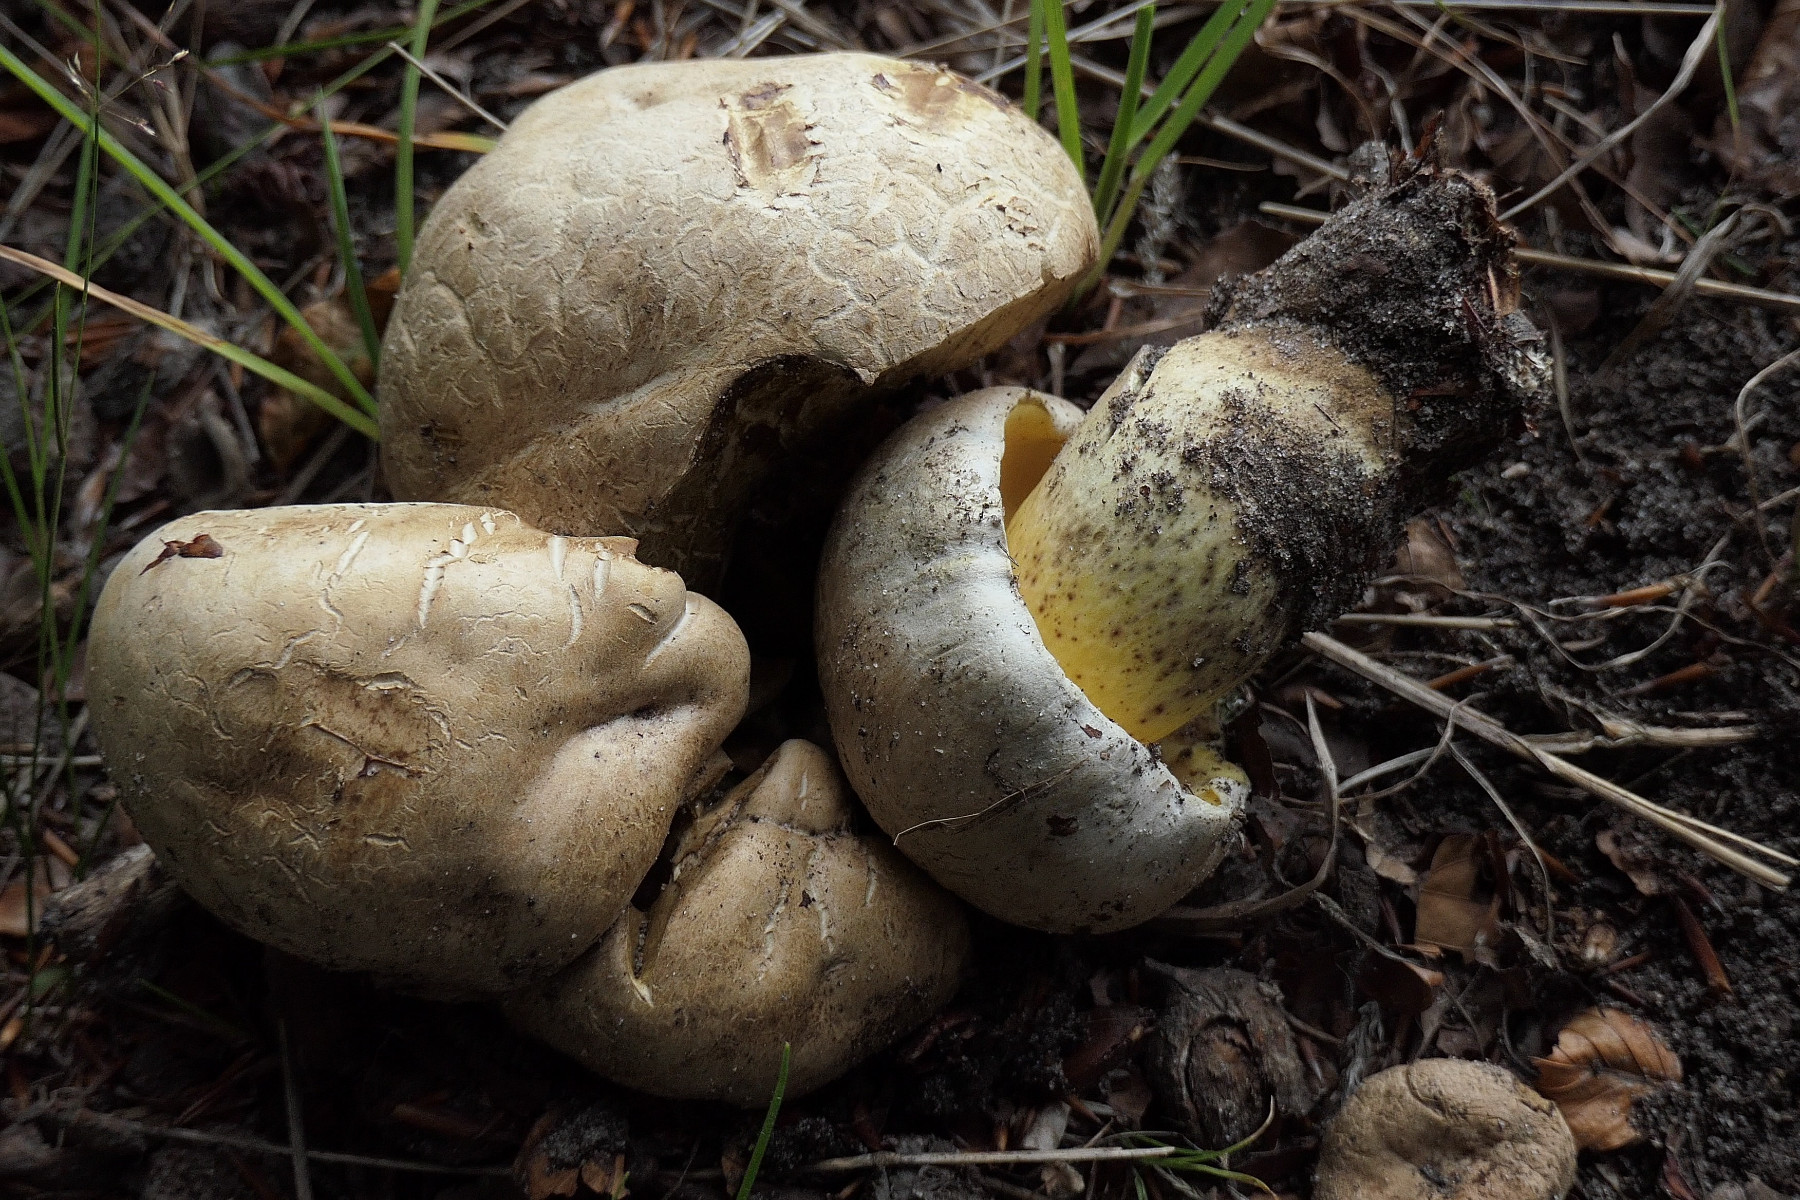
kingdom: Fungi
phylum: Basidiomycota
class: Agaricomycetes
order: Boletales
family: Boletaceae
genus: Caloboletus
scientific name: Caloboletus radicans
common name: rod-rørhat
